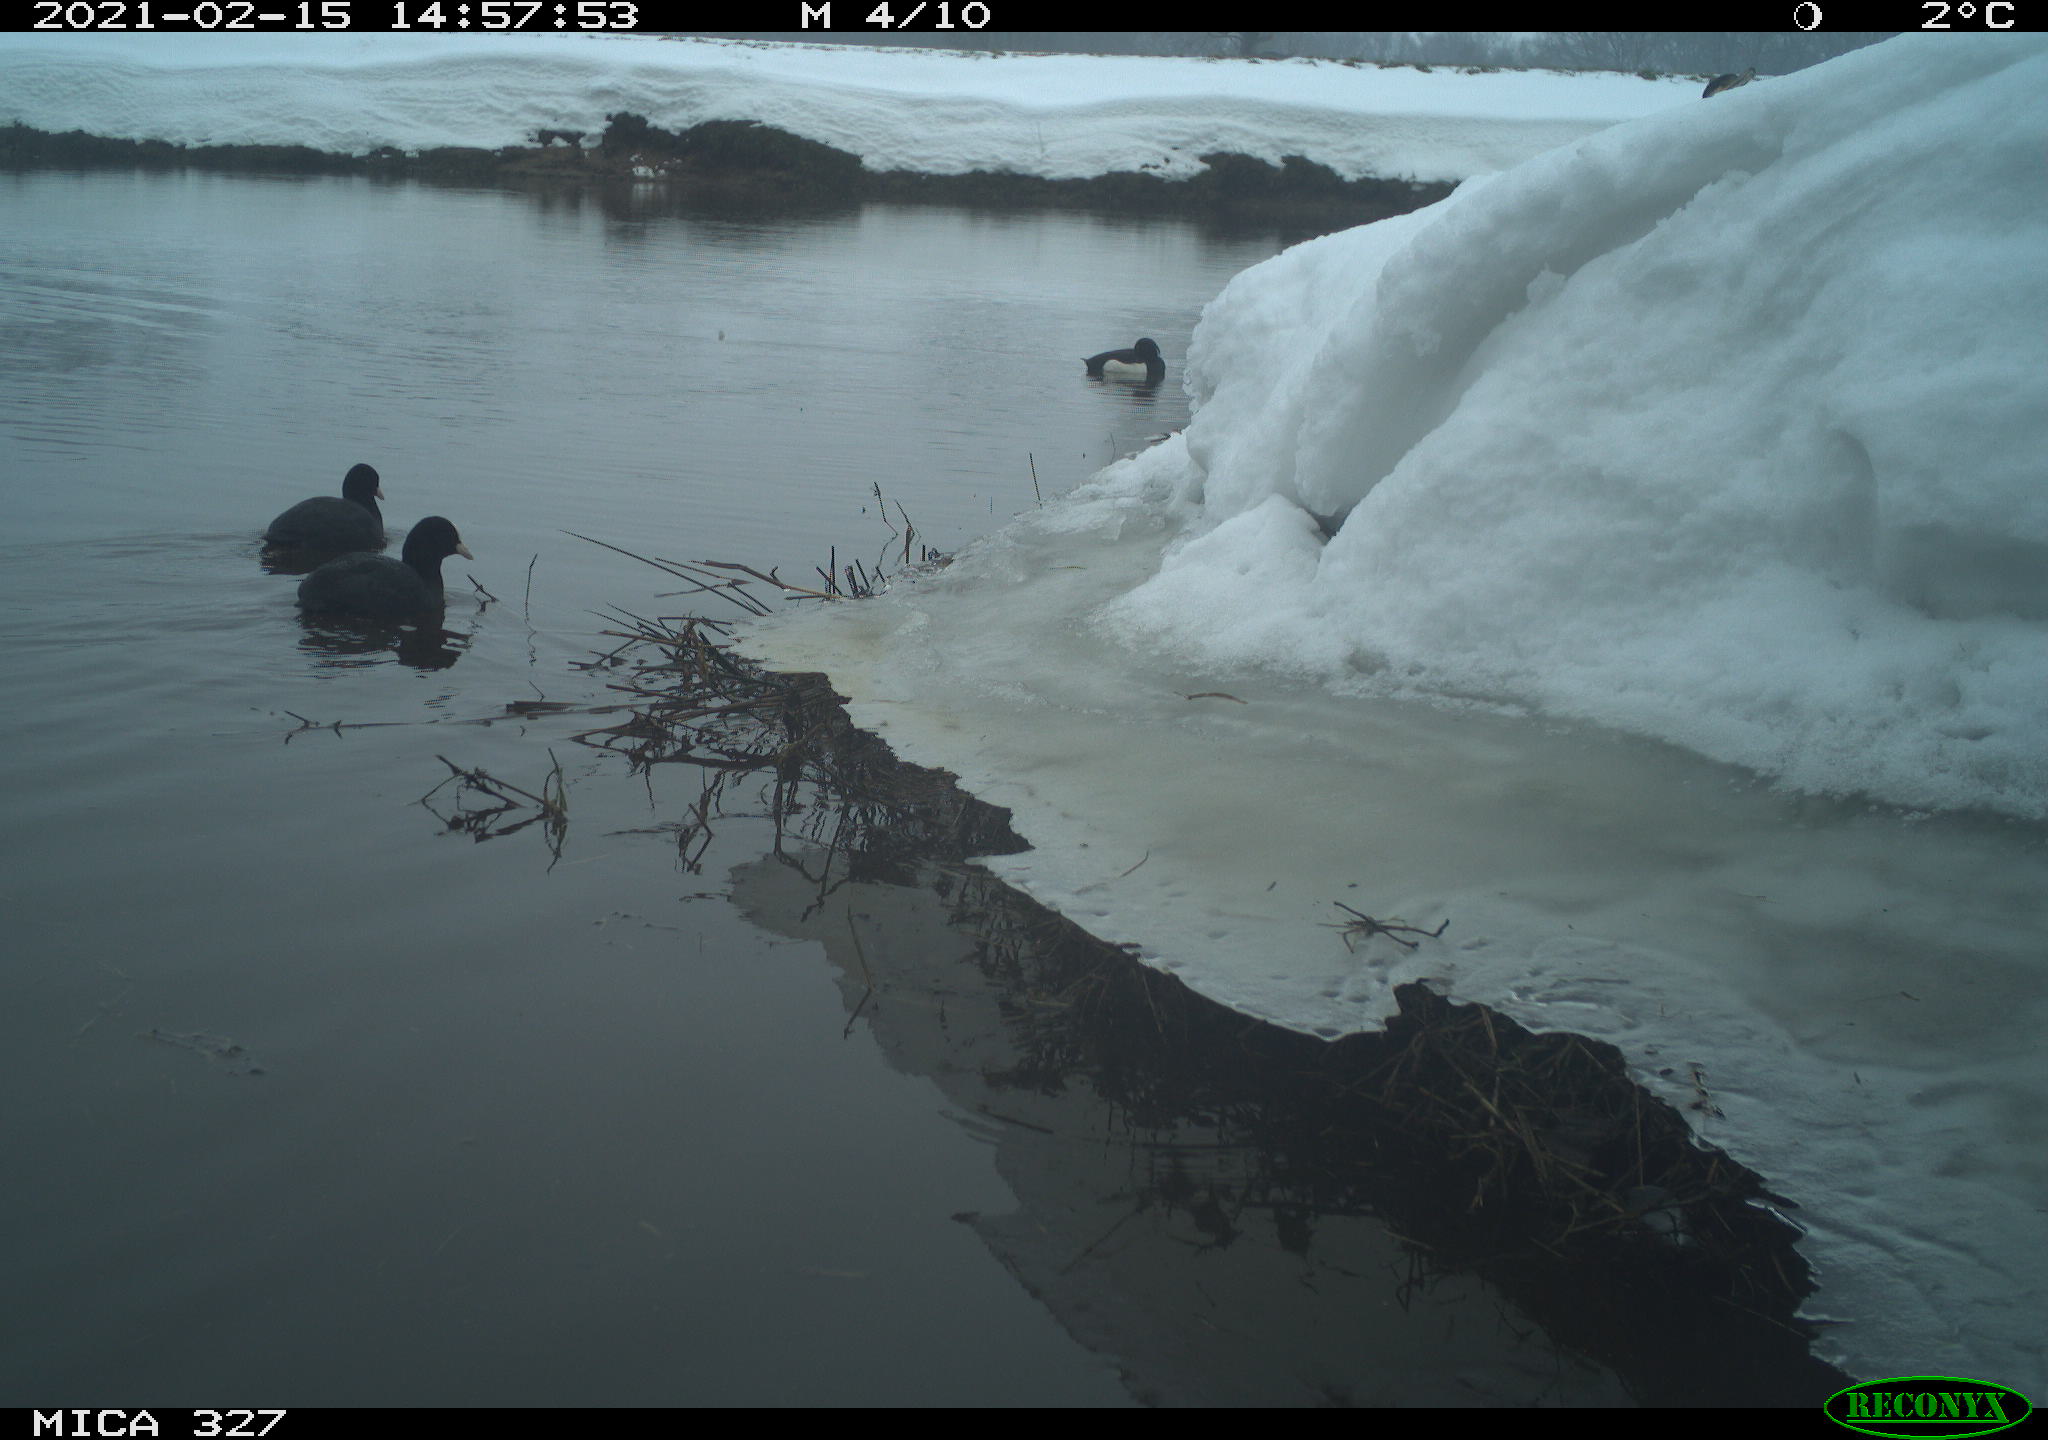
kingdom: Animalia
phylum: Chordata
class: Aves
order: Gruiformes
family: Rallidae
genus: Fulica
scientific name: Fulica atra
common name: Eurasian coot
